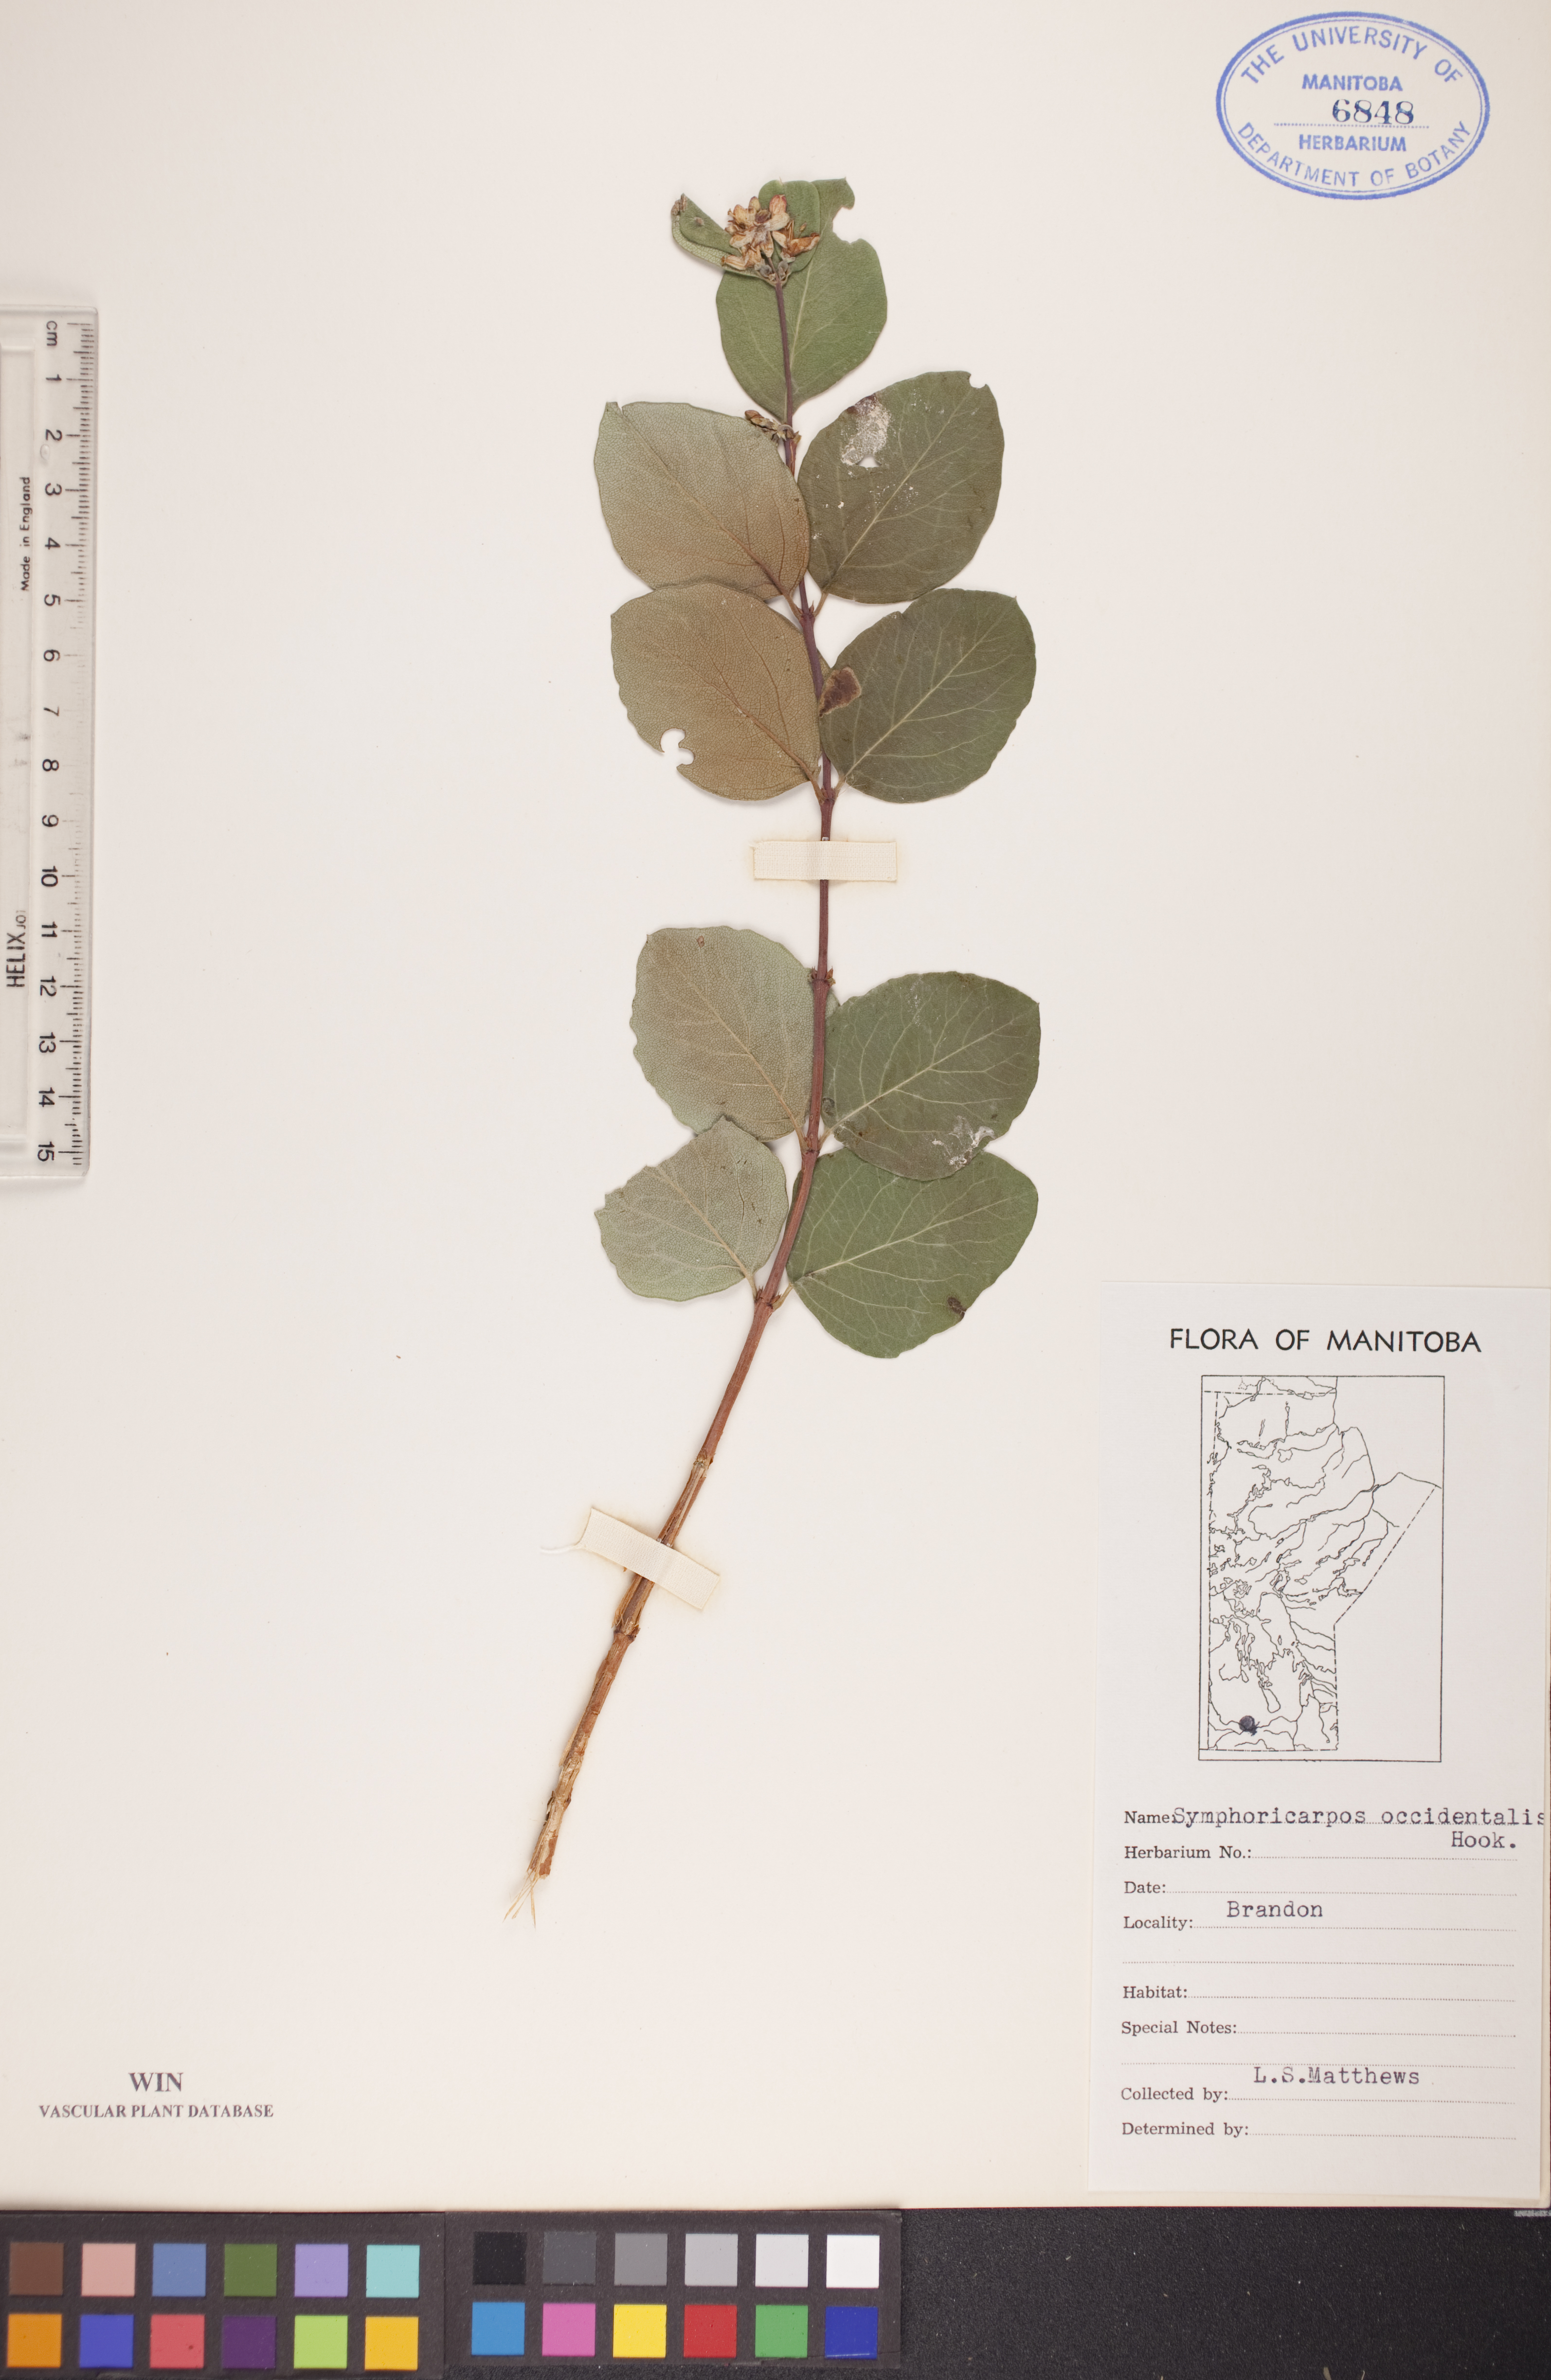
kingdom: Plantae
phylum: Tracheophyta
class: Magnoliopsida
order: Dipsacales
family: Caprifoliaceae
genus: Symphoricarpos
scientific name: Symphoricarpos occidentalis
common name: Wolfberry
